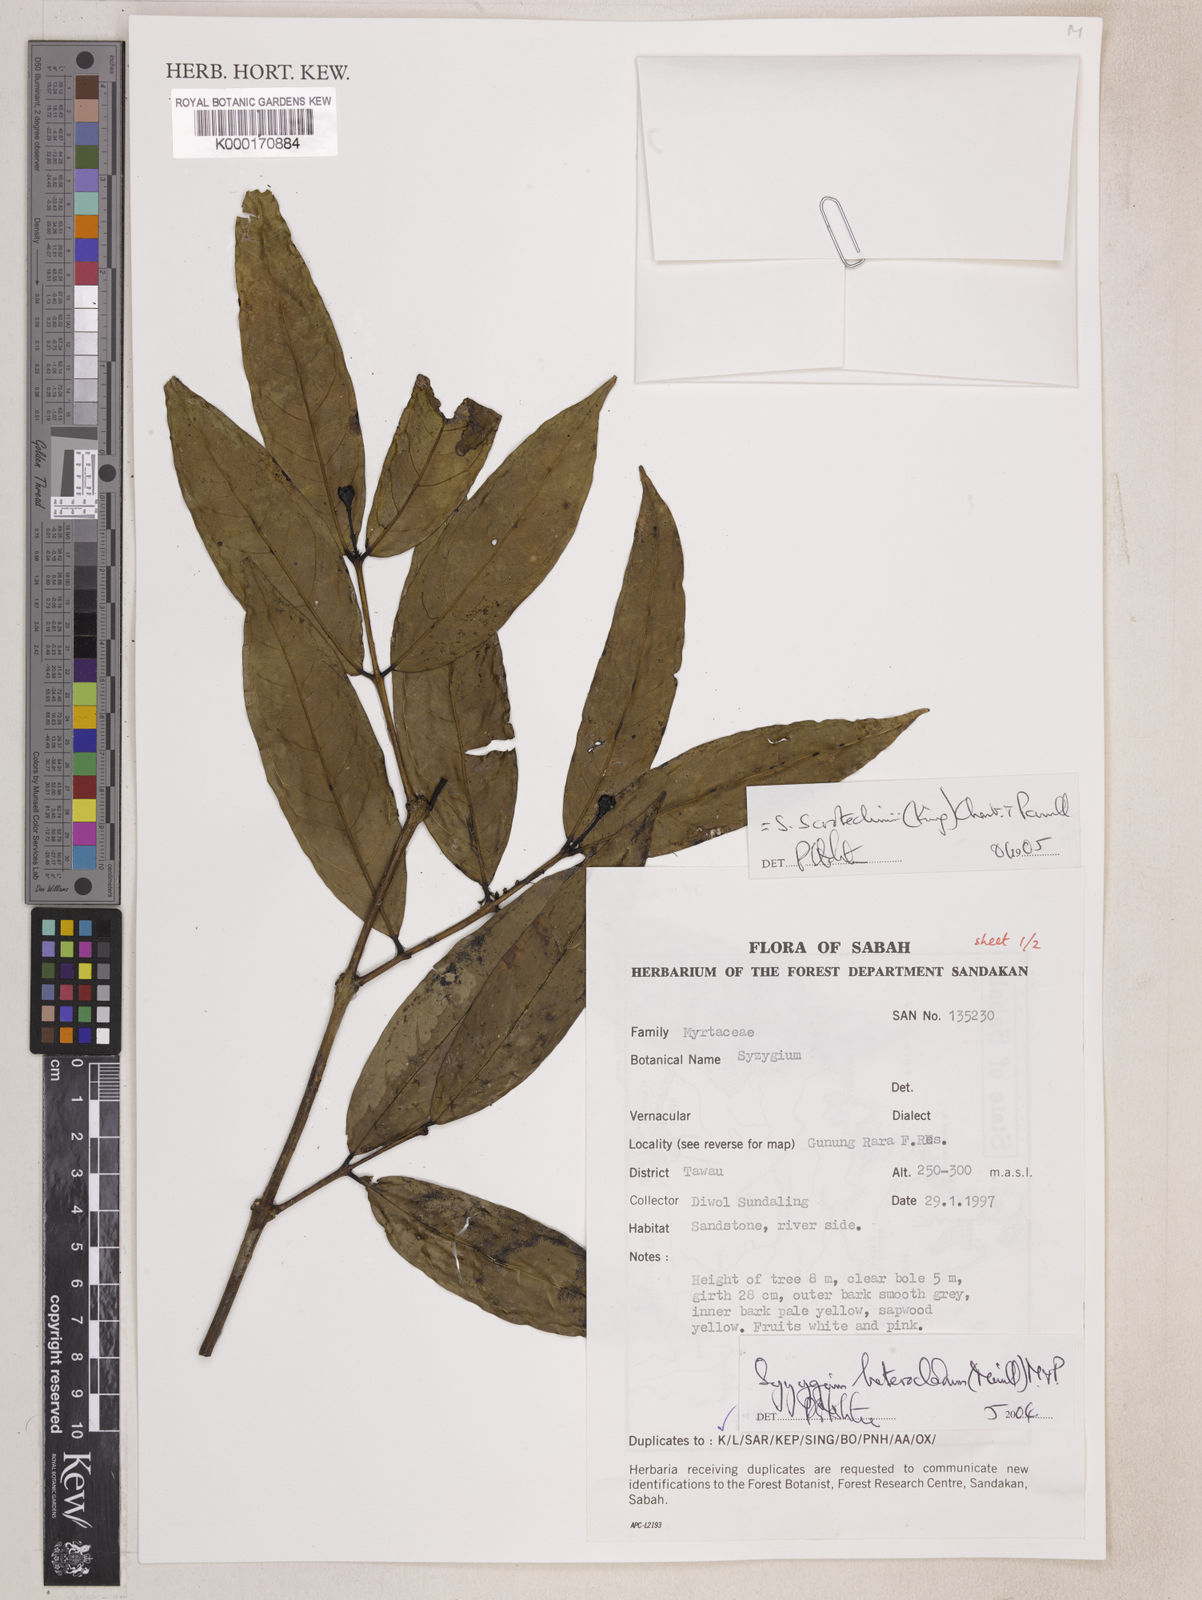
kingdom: Plantae
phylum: Tracheophyta
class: Magnoliopsida
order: Myrtales
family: Myrtaceae
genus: Syzygium
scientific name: Syzygium scortechinii
